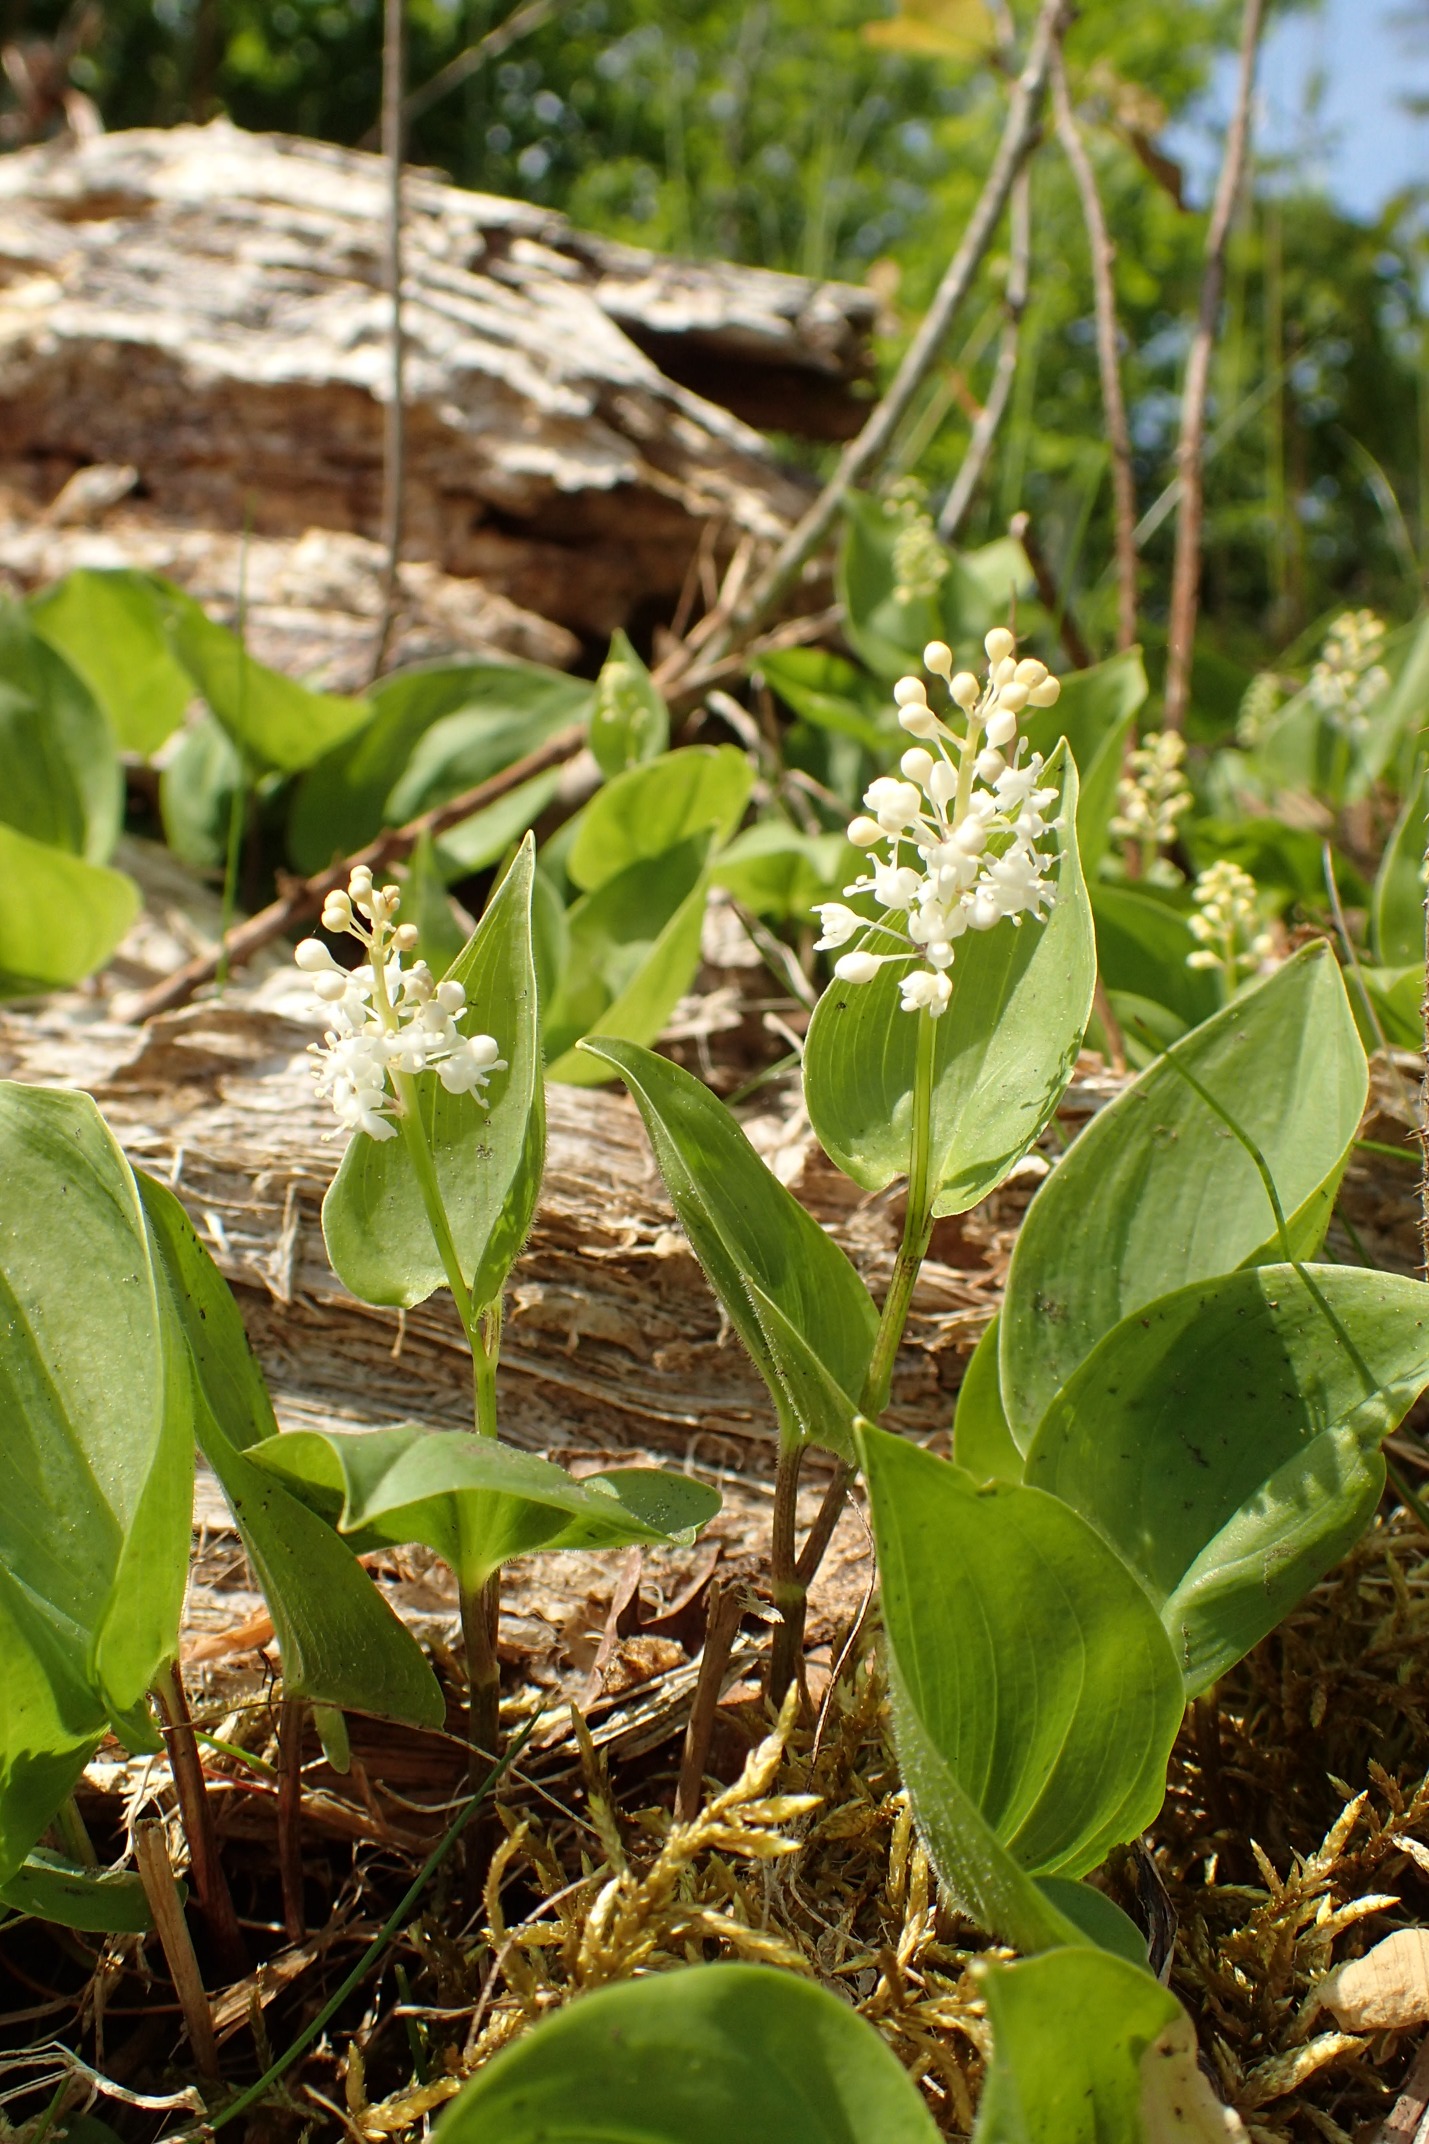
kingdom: Plantae
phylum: Tracheophyta
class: Liliopsida
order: Asparagales
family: Asparagaceae
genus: Maianthemum
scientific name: Maianthemum bifolium
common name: Majblomst
